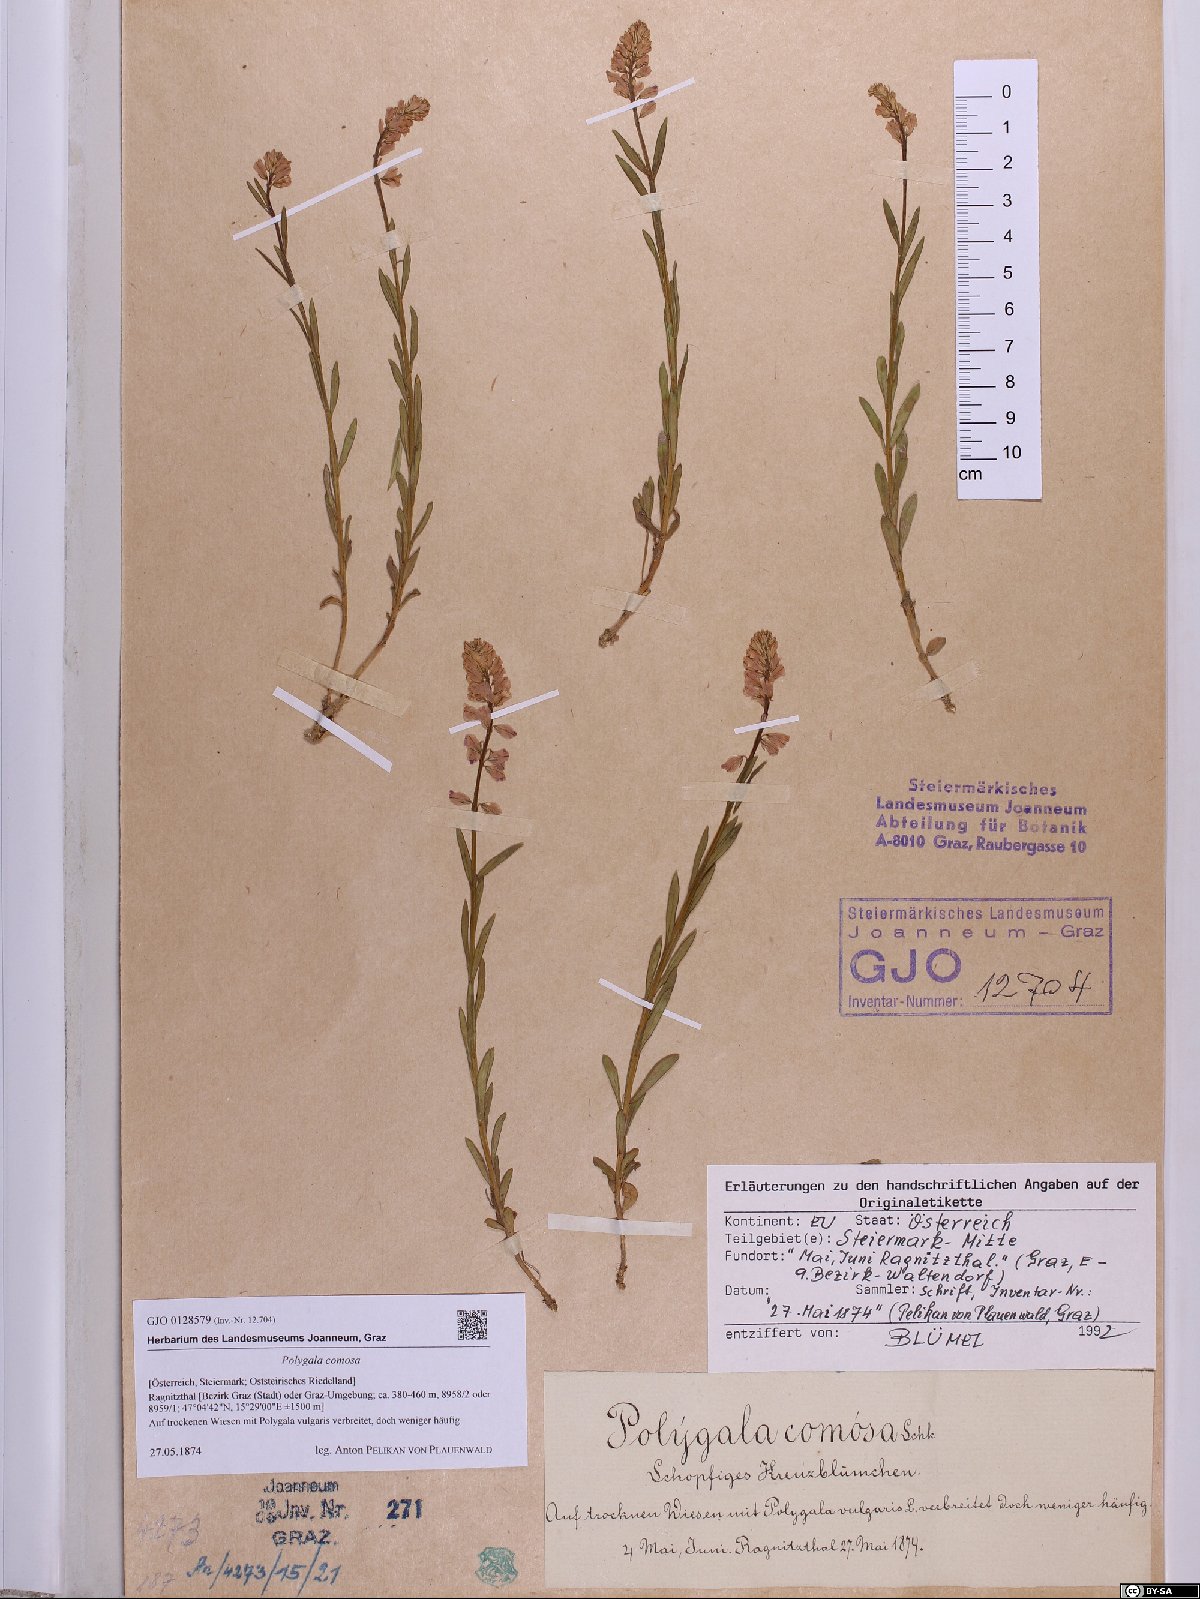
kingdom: Plantae
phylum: Tracheophyta
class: Magnoliopsida
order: Fabales
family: Polygalaceae
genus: Polygala
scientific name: Polygala comosa
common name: Tufted milkwort
